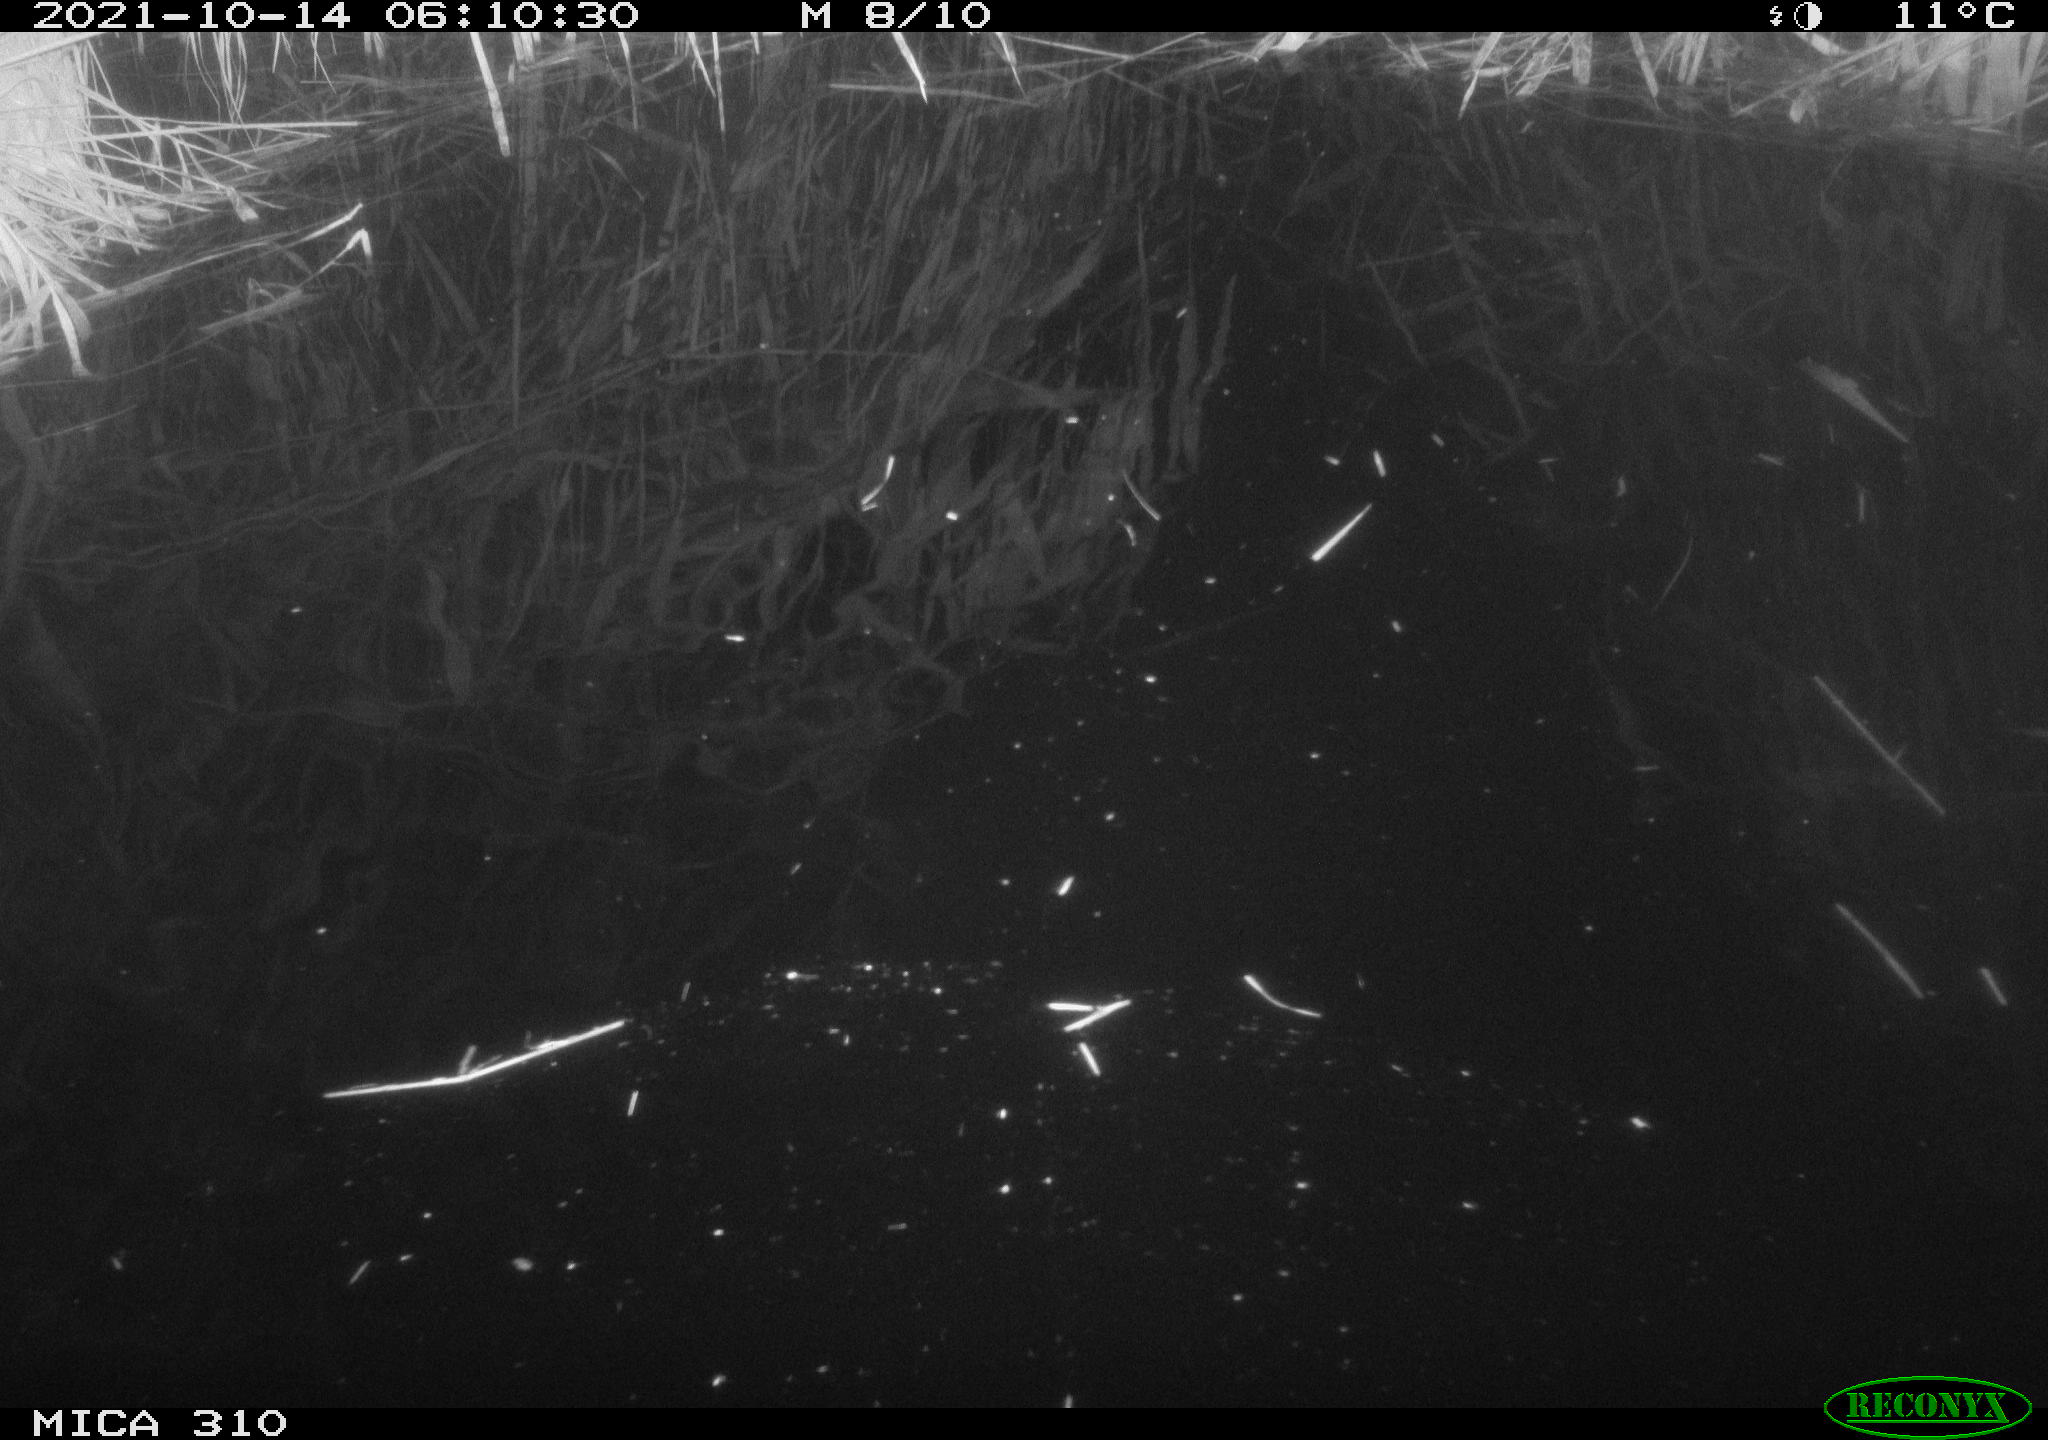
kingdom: Animalia
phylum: Chordata
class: Mammalia
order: Rodentia
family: Muridae
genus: Rattus
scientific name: Rattus norvegicus
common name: Brown rat
